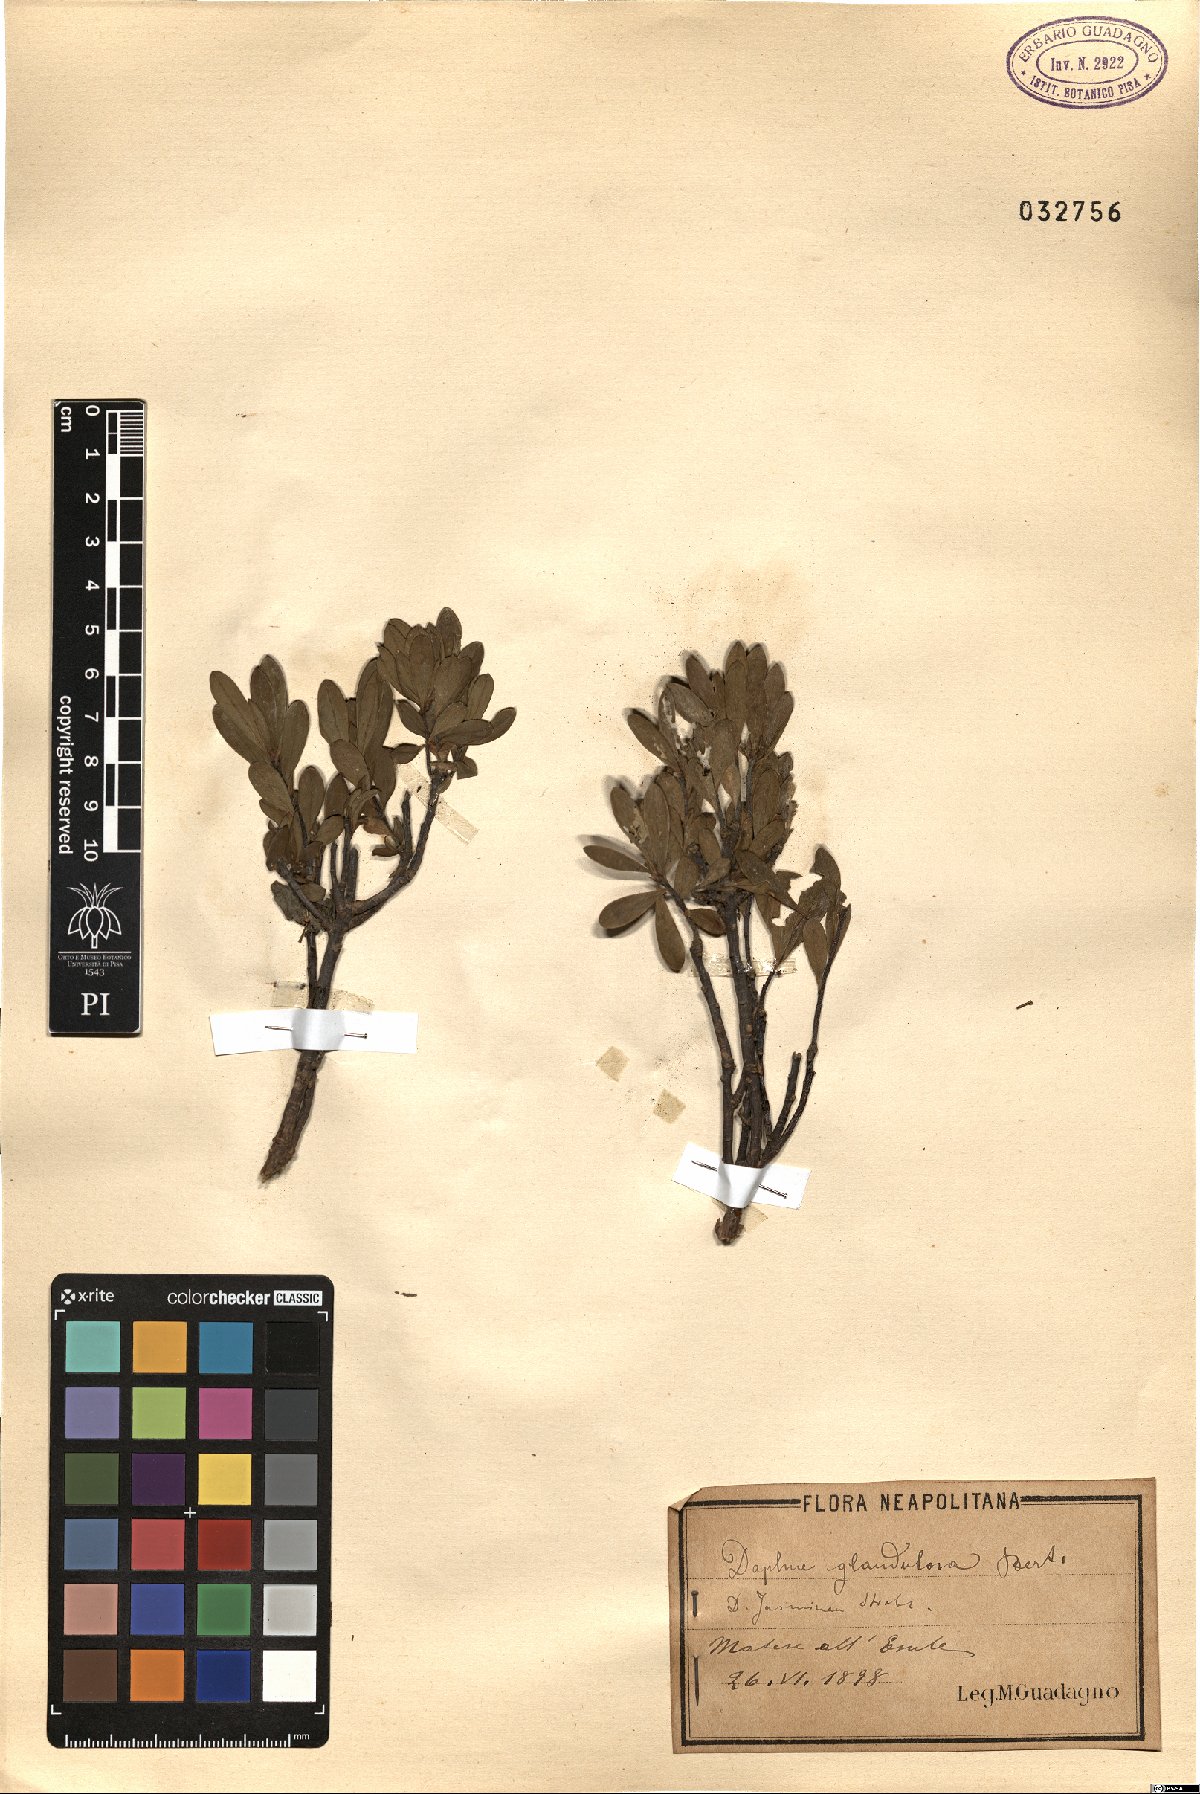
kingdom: Plantae
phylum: Tracheophyta
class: Magnoliopsida
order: Malvales
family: Thymelaeaceae
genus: Daphne
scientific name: Daphne oleoides
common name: Spurge-olive
